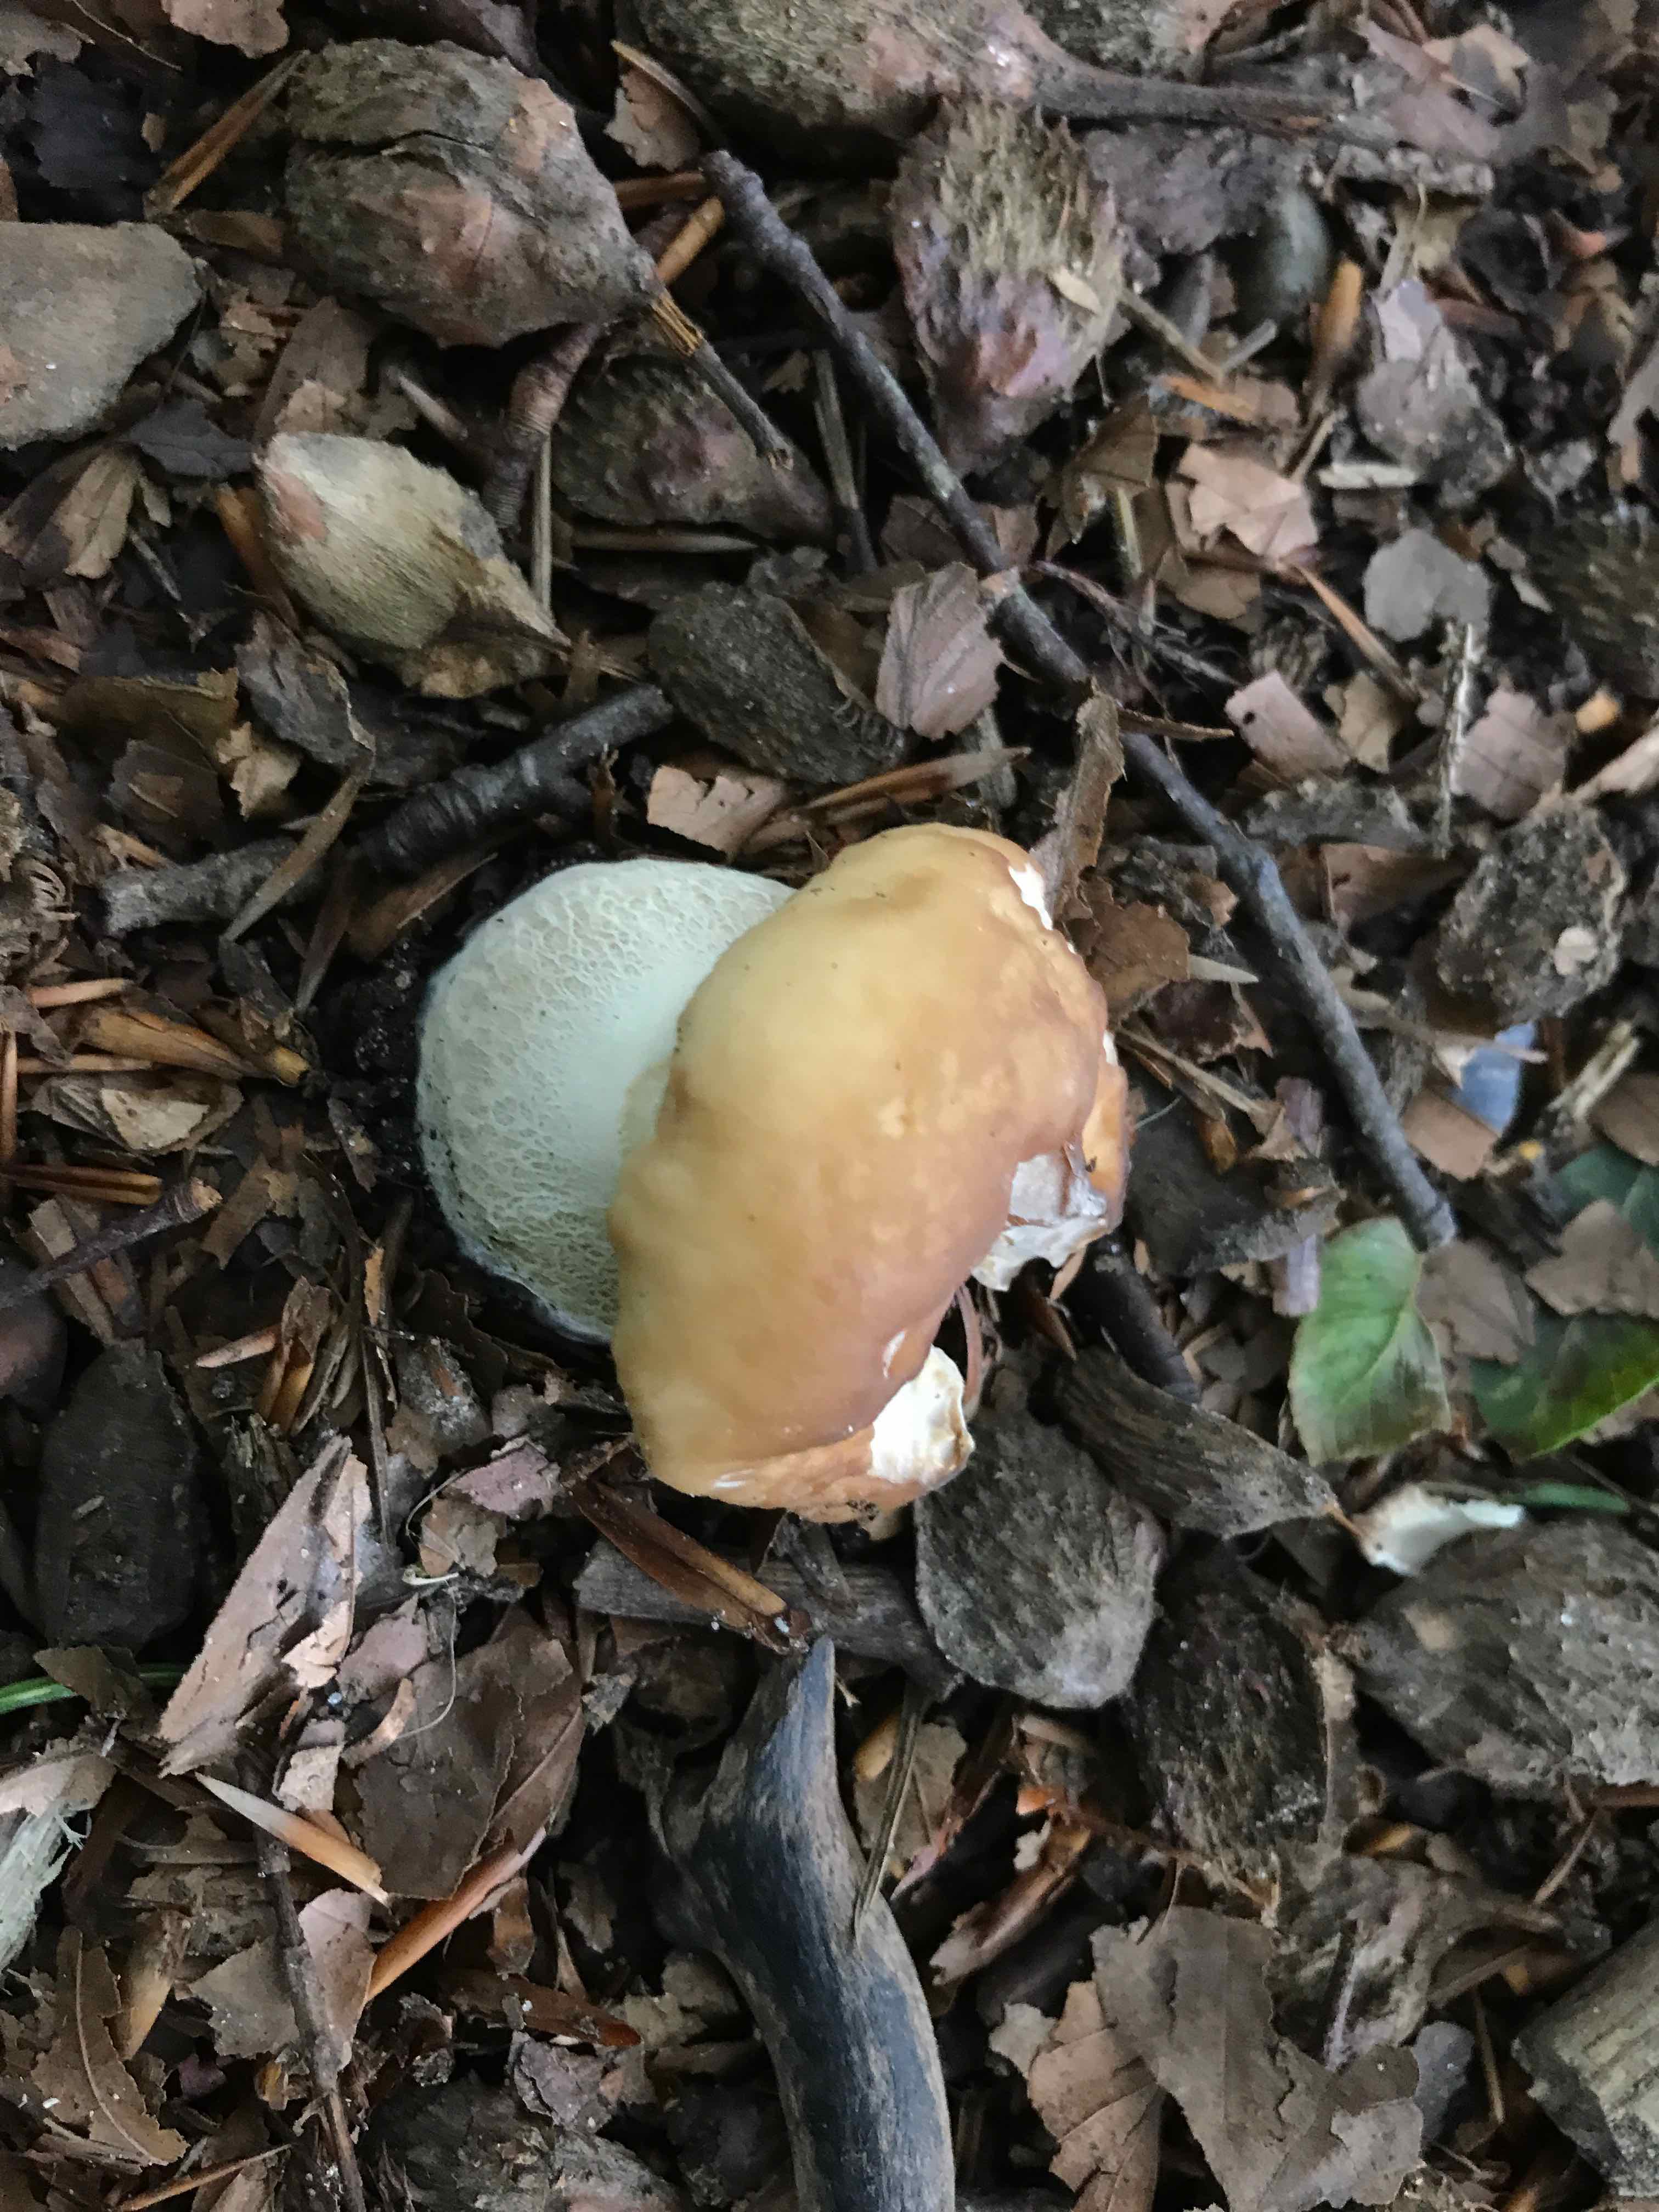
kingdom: Fungi
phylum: Basidiomycota
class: Agaricomycetes
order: Boletales
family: Boletaceae
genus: Boletus
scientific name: Boletus edulis
